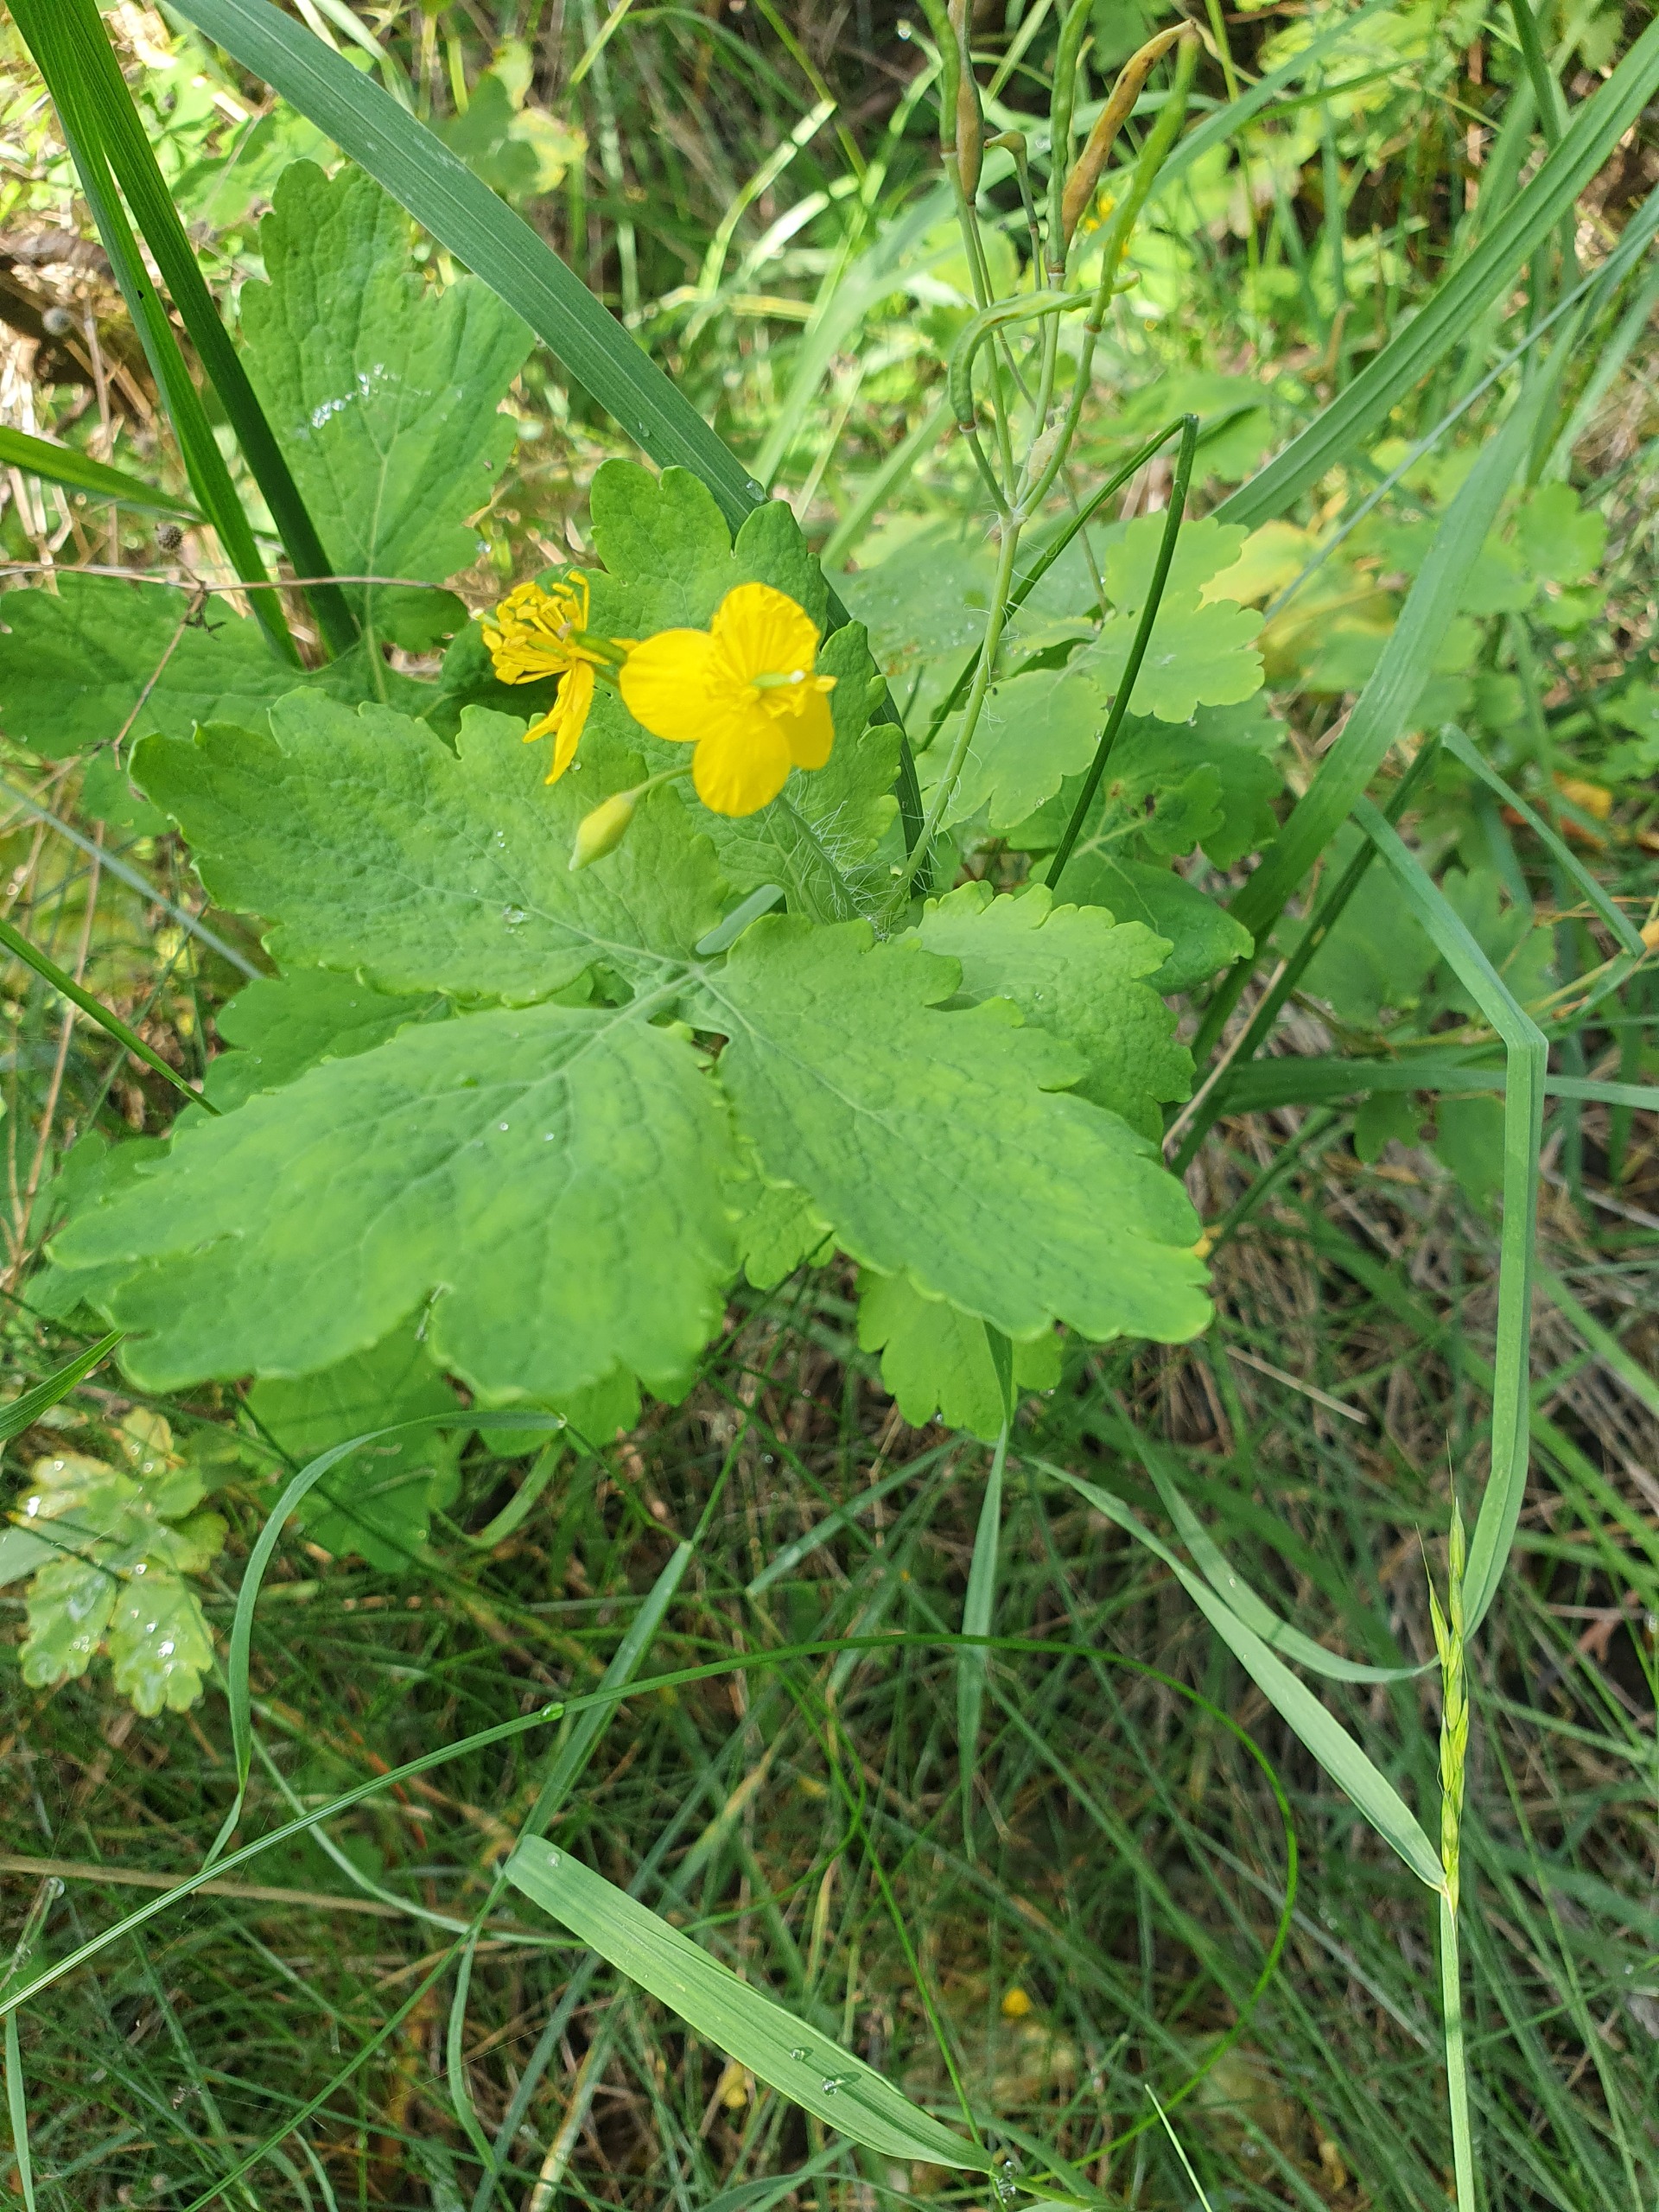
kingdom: Plantae
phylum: Tracheophyta
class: Magnoliopsida
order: Ranunculales
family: Papaveraceae
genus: Chelidonium
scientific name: Chelidonium majus
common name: Svaleurt
